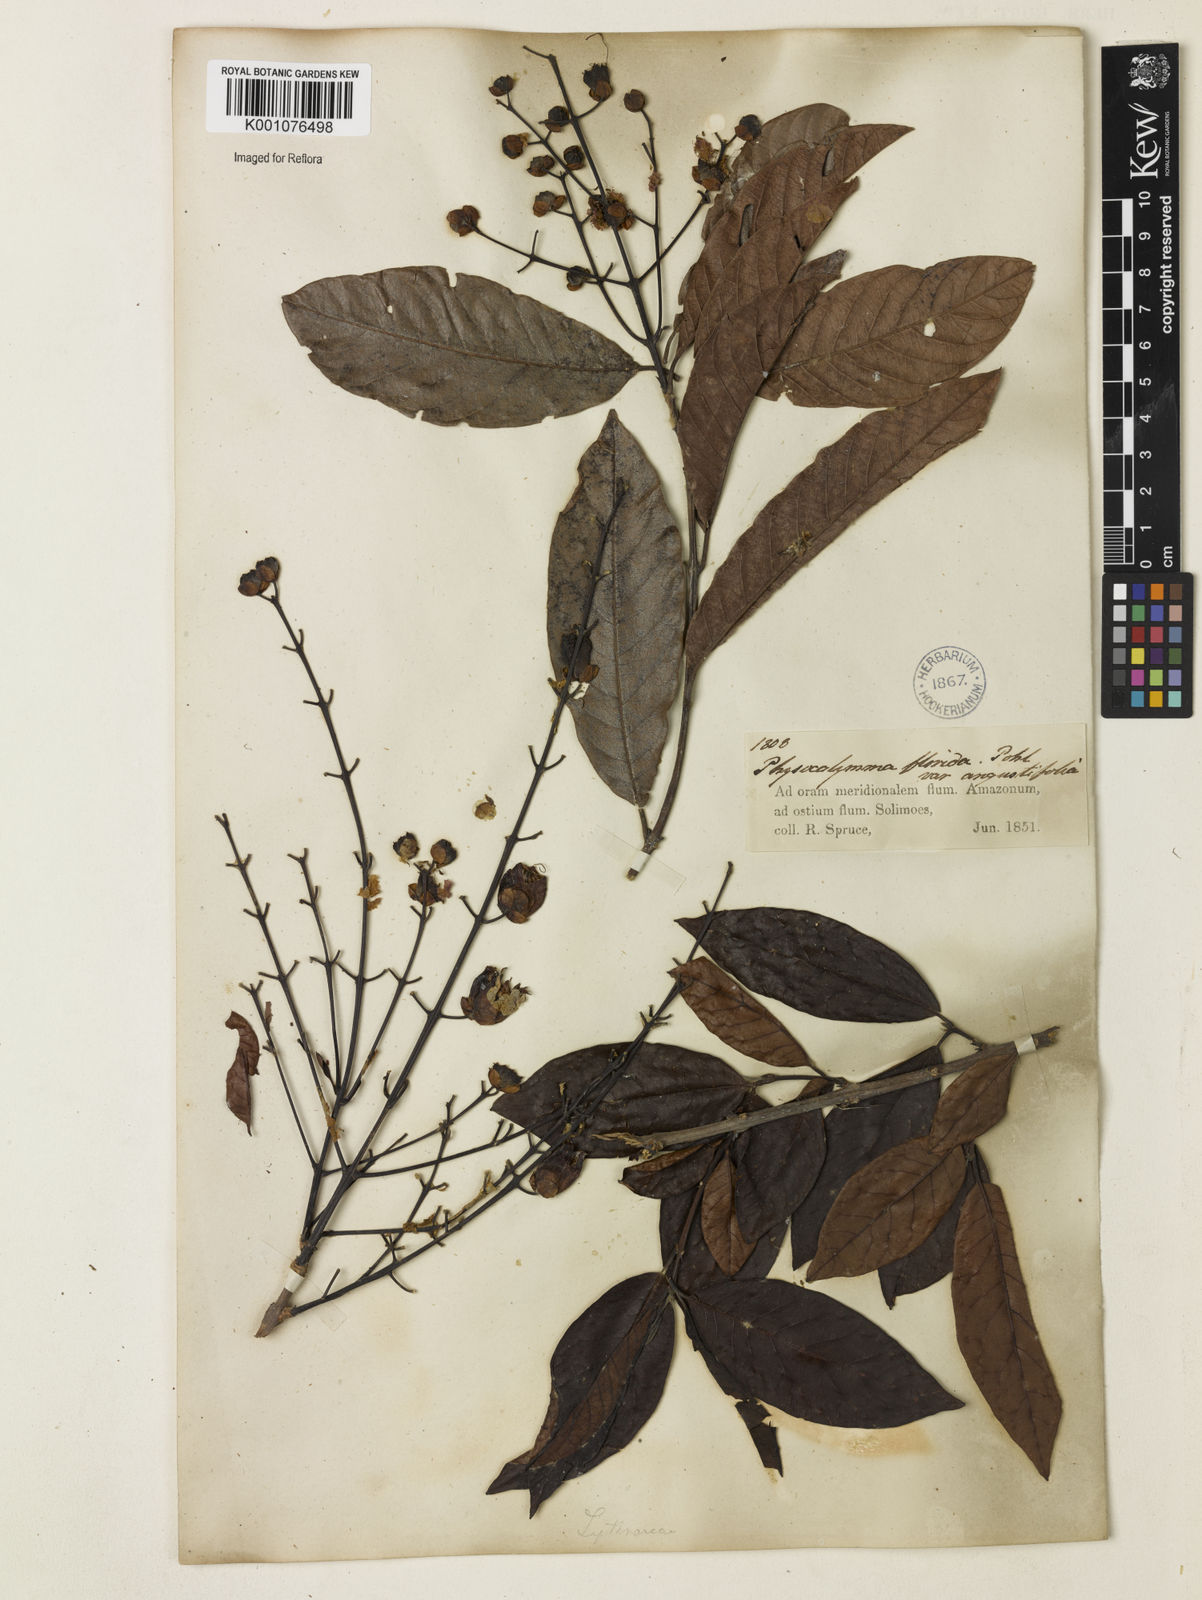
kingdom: Plantae
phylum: Tracheophyta
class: Magnoliopsida
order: Myrtales
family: Lythraceae
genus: Physocalymma
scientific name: Physocalymma scaberrimum
